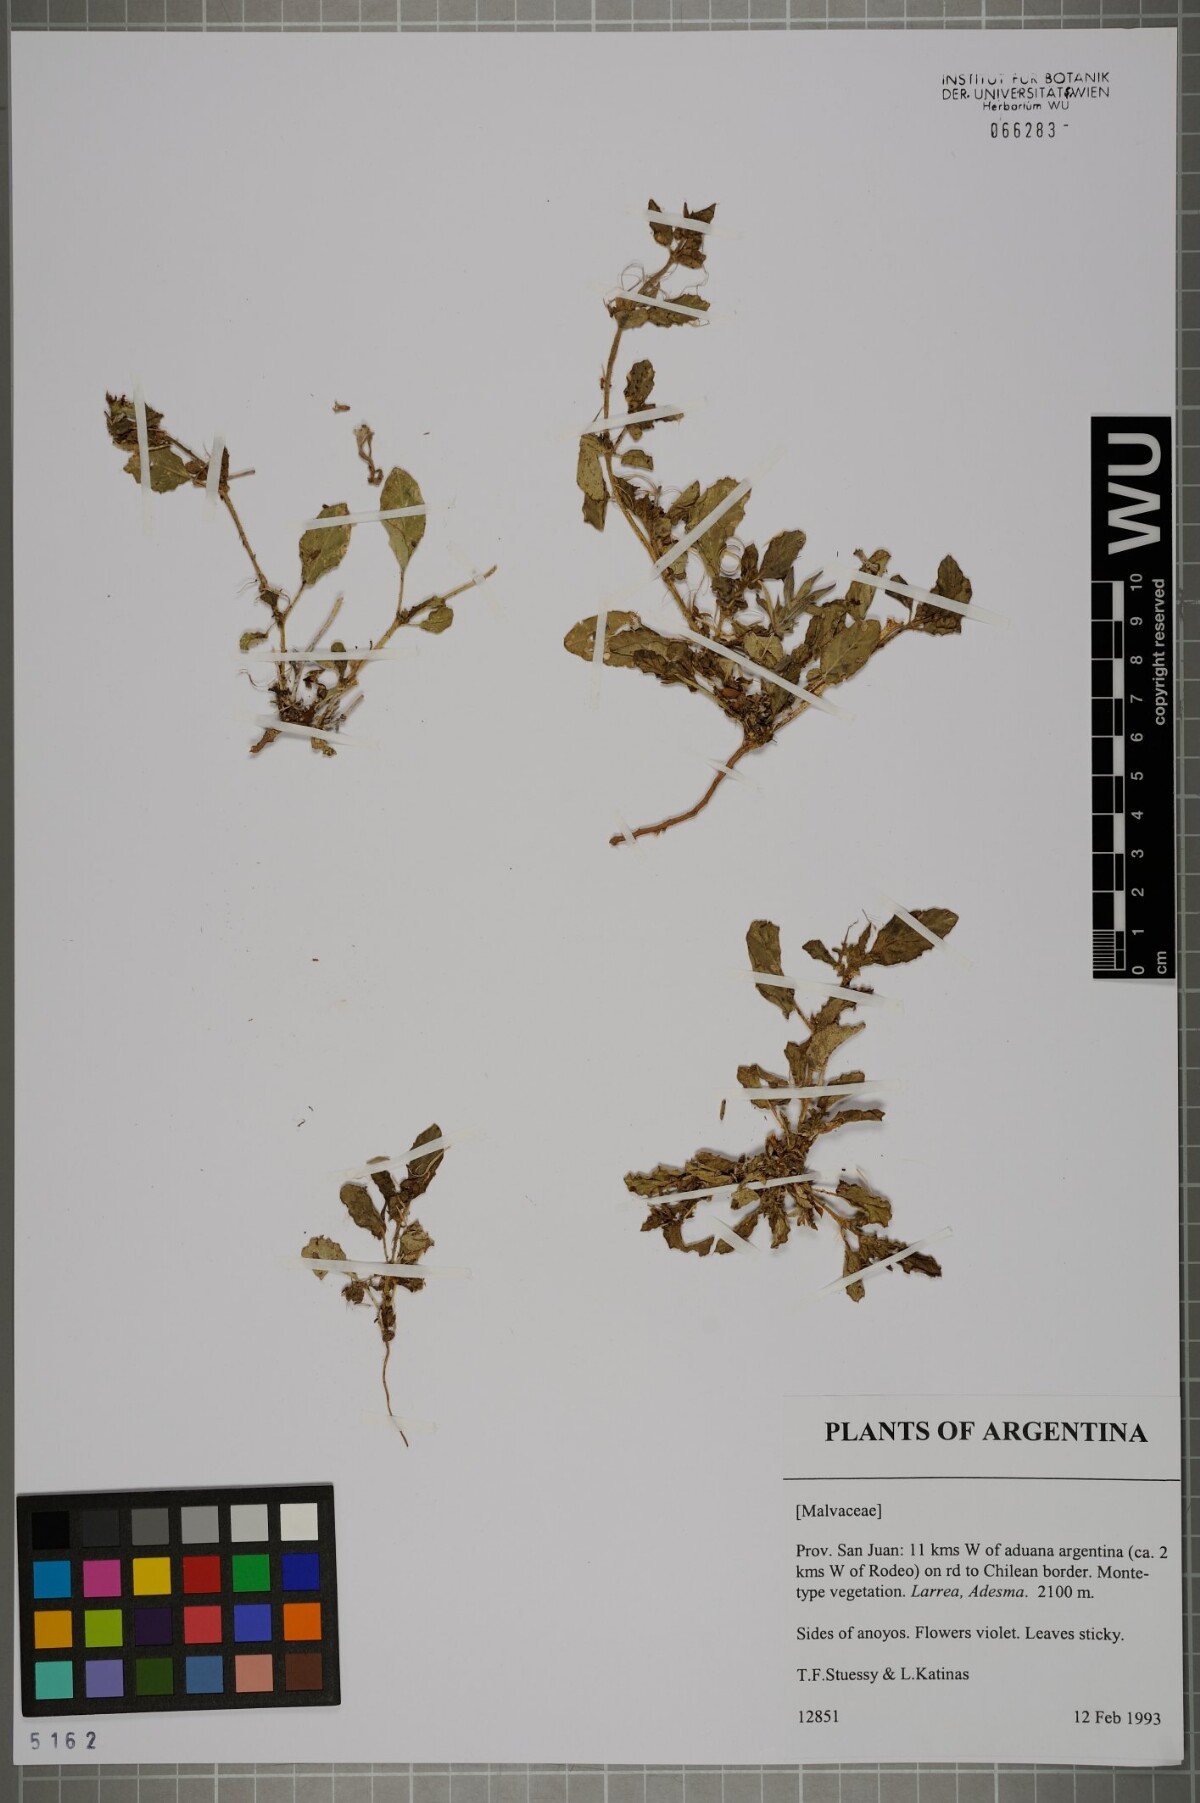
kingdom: Plantae
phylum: Tracheophyta
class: Magnoliopsida
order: Malvales
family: Malvaceae
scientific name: Malvaceae
